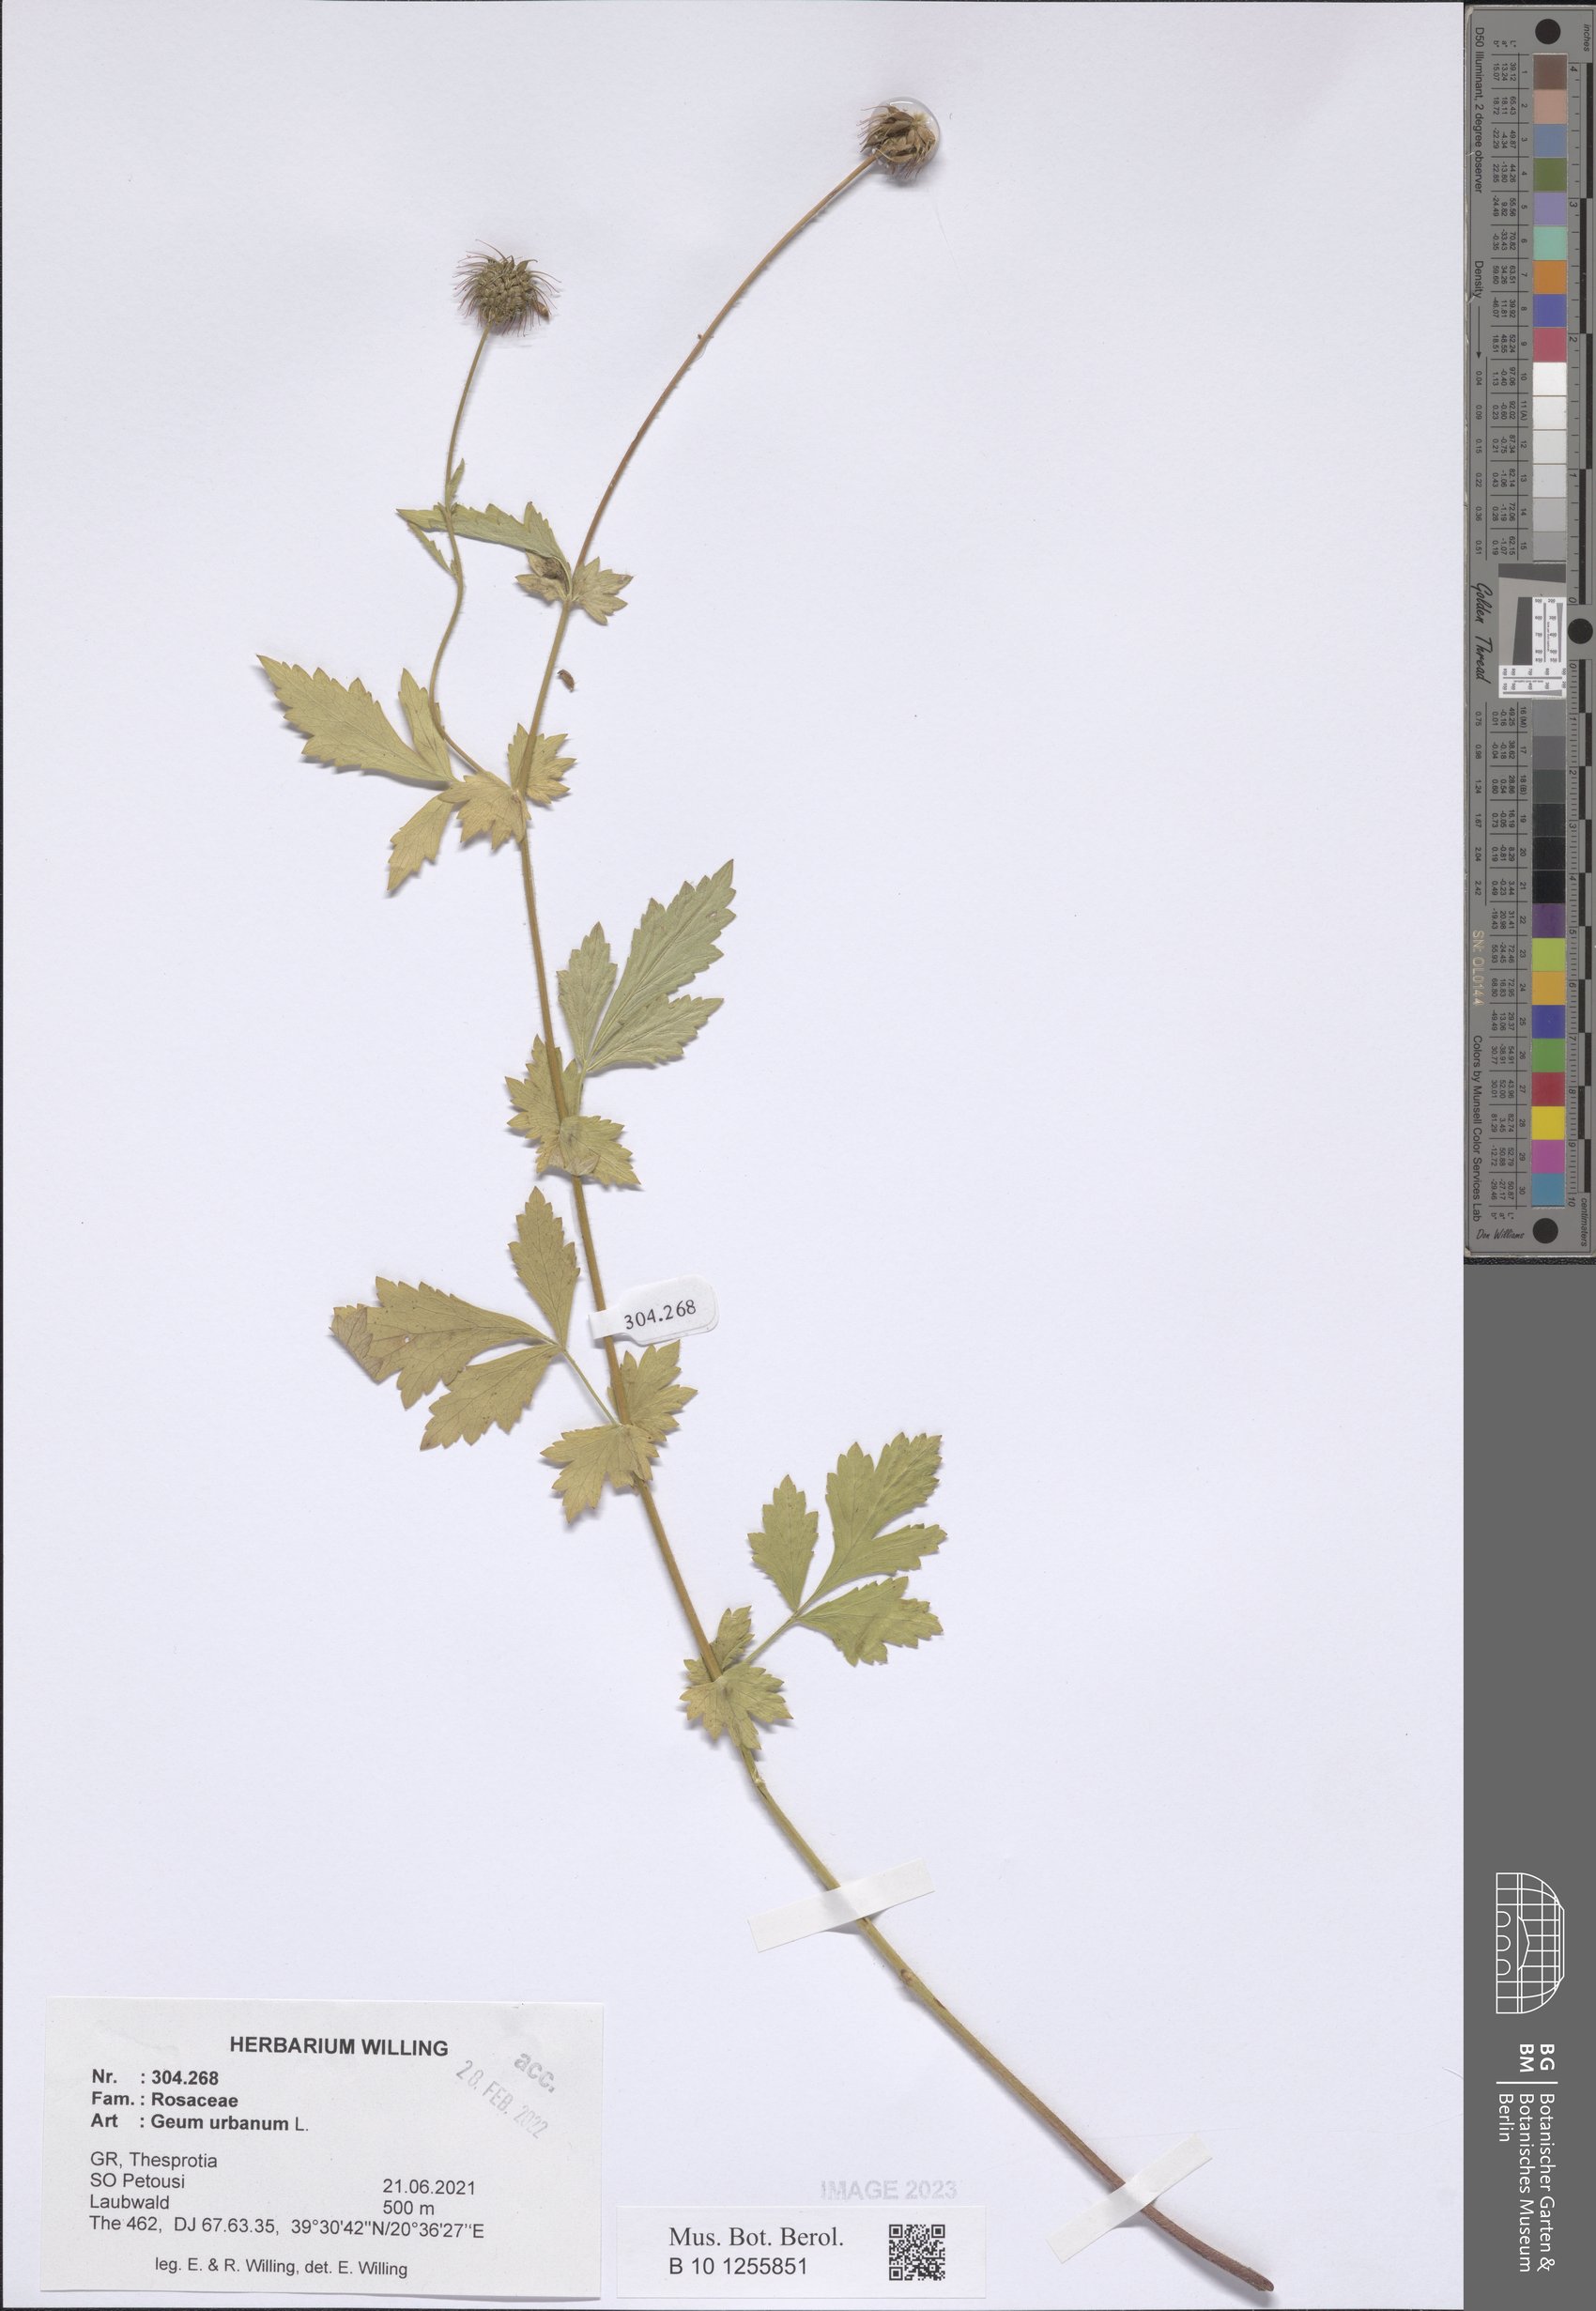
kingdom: Plantae
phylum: Tracheophyta
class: Magnoliopsida
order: Rosales
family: Rosaceae
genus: Geum
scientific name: Geum urbanum
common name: Wood avens
